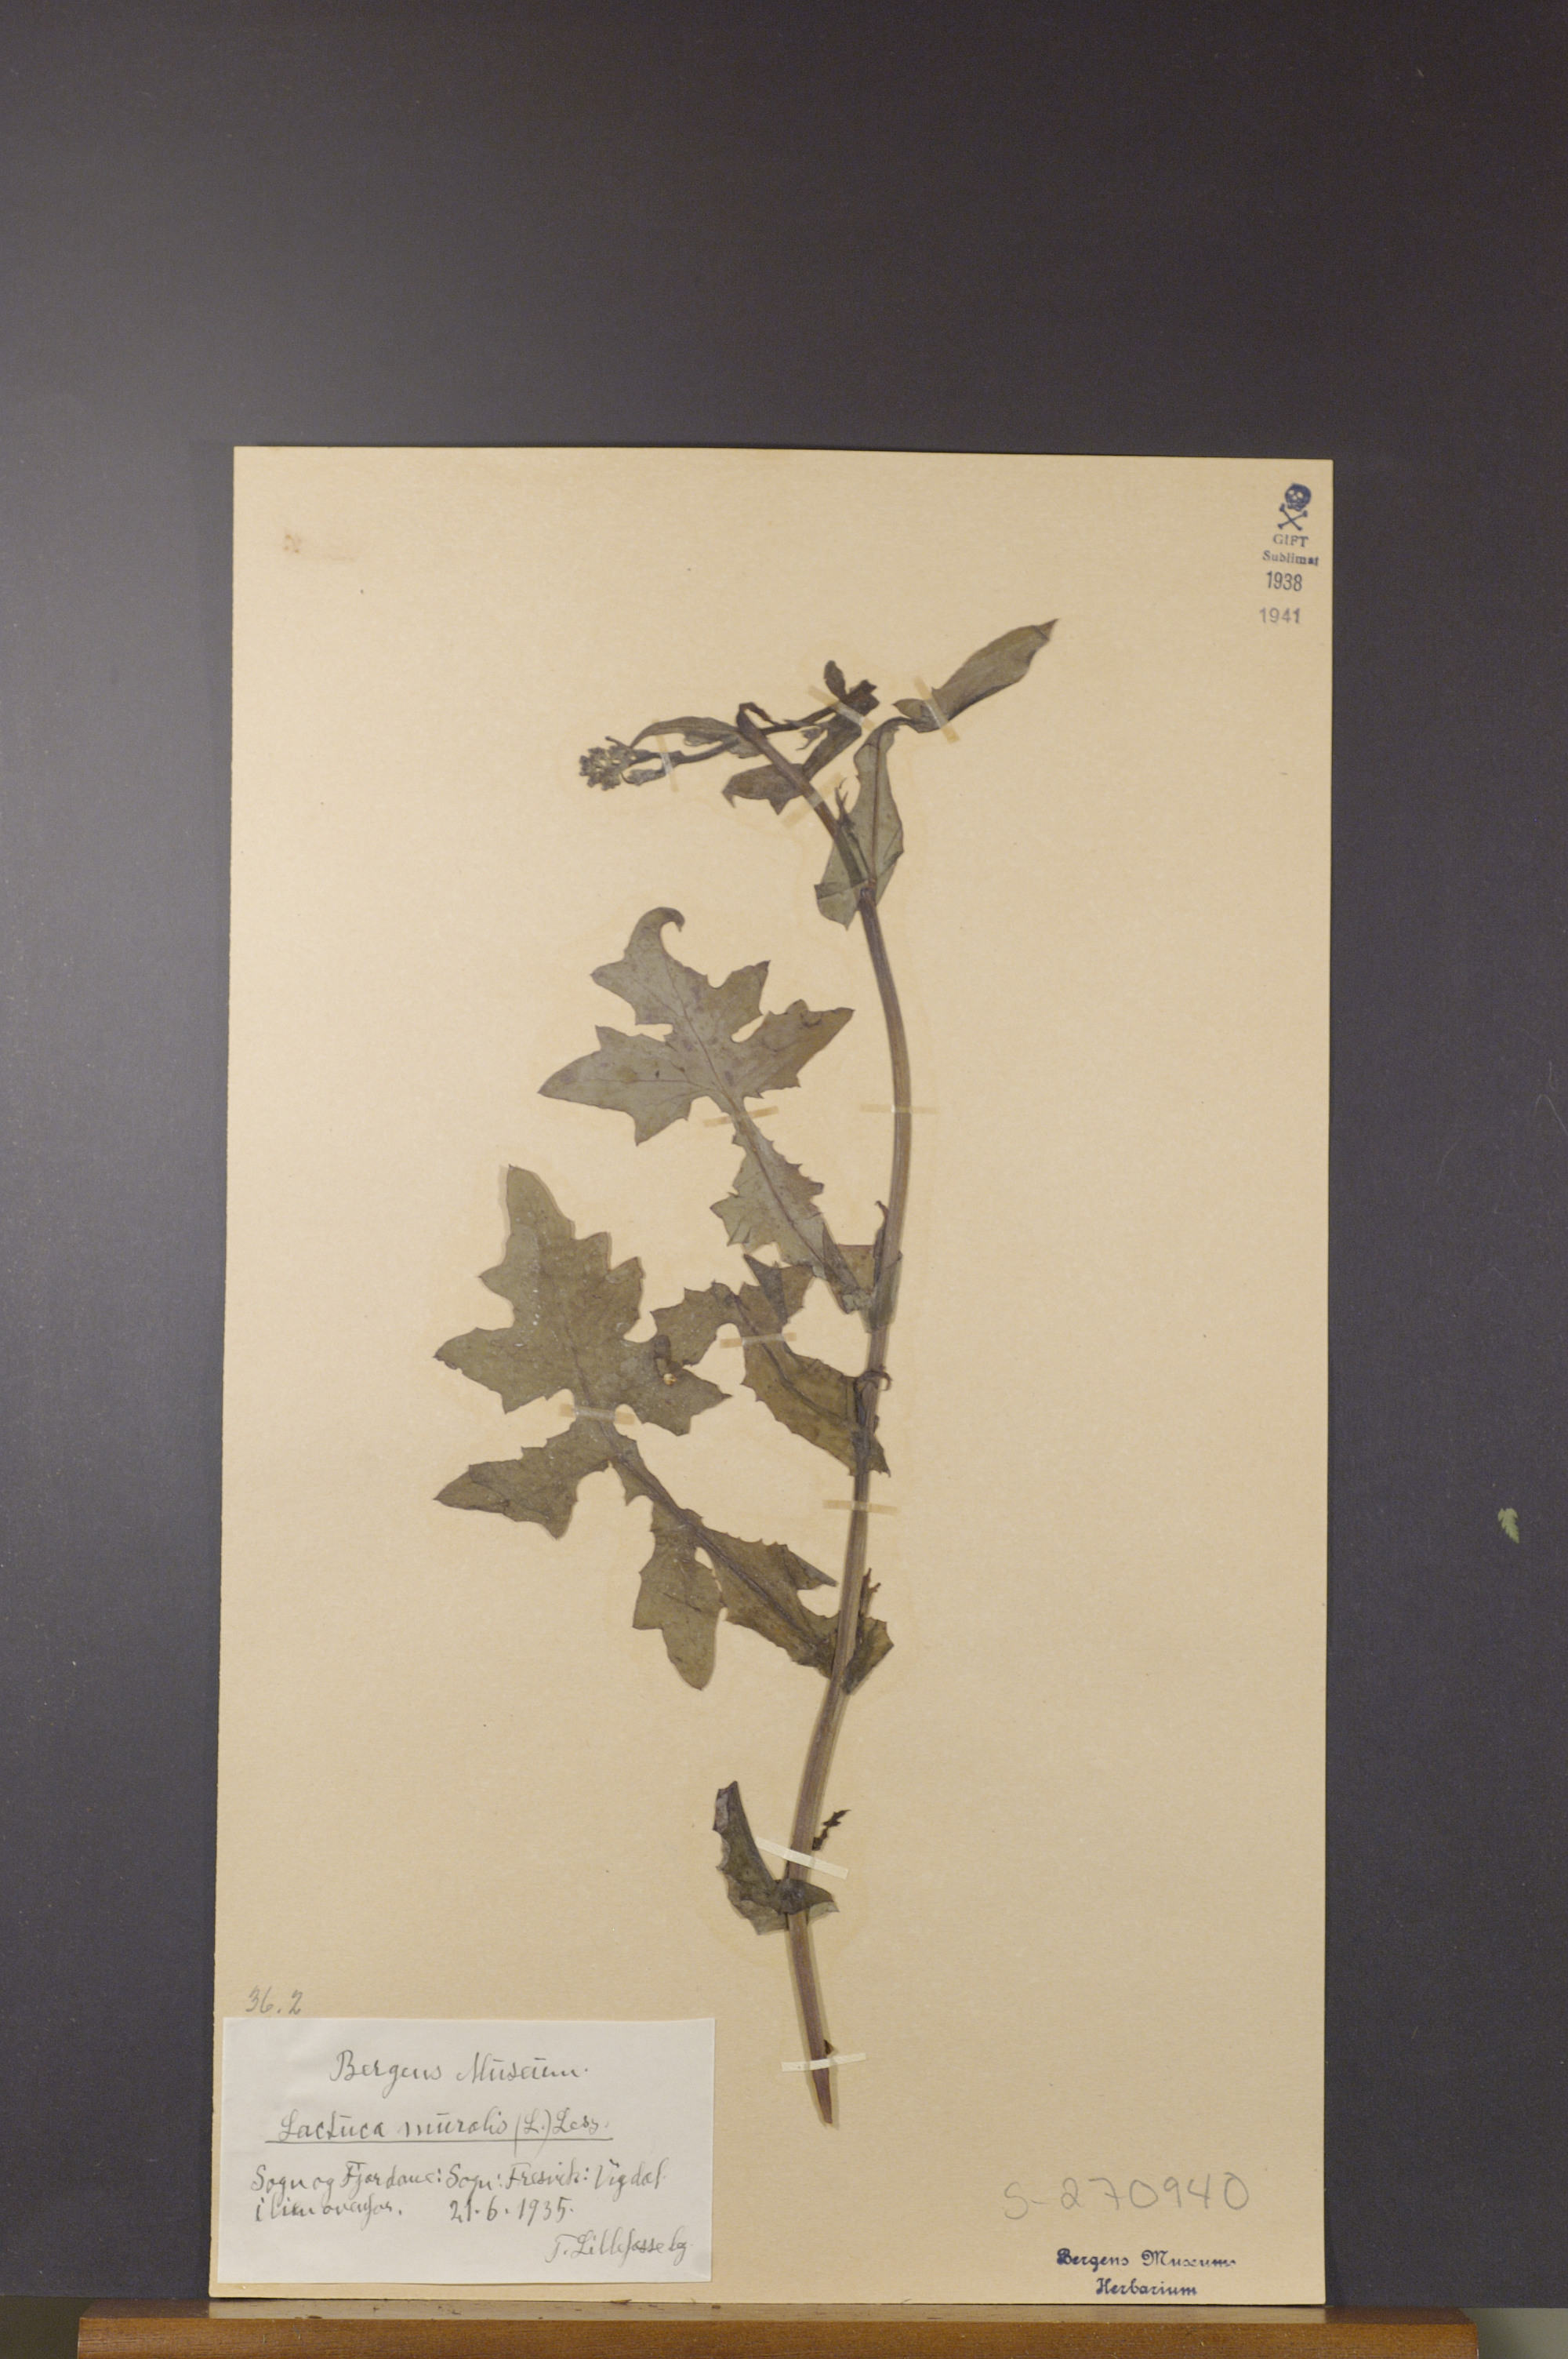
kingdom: Plantae
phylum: Tracheophyta
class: Magnoliopsida
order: Asterales
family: Asteraceae
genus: Mycelis
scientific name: Mycelis muralis
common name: Wall lettuce
